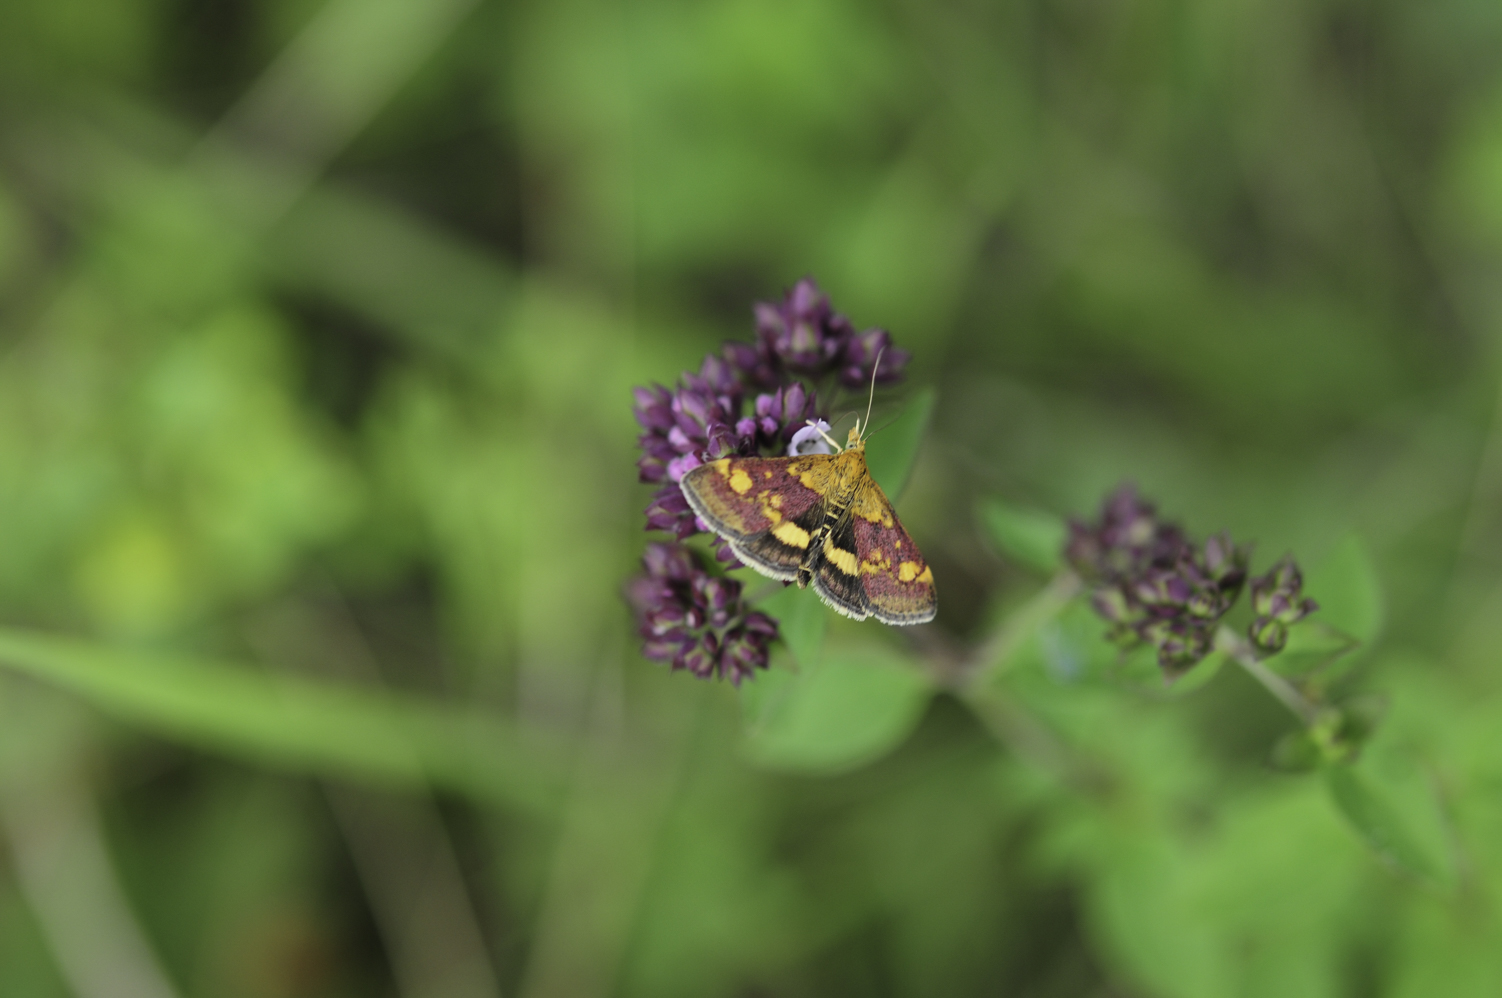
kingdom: Animalia
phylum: Arthropoda
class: Insecta
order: Lepidoptera
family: Crambidae
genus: Pyrausta
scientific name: Pyrausta purpuralis
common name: Common purple & gold
